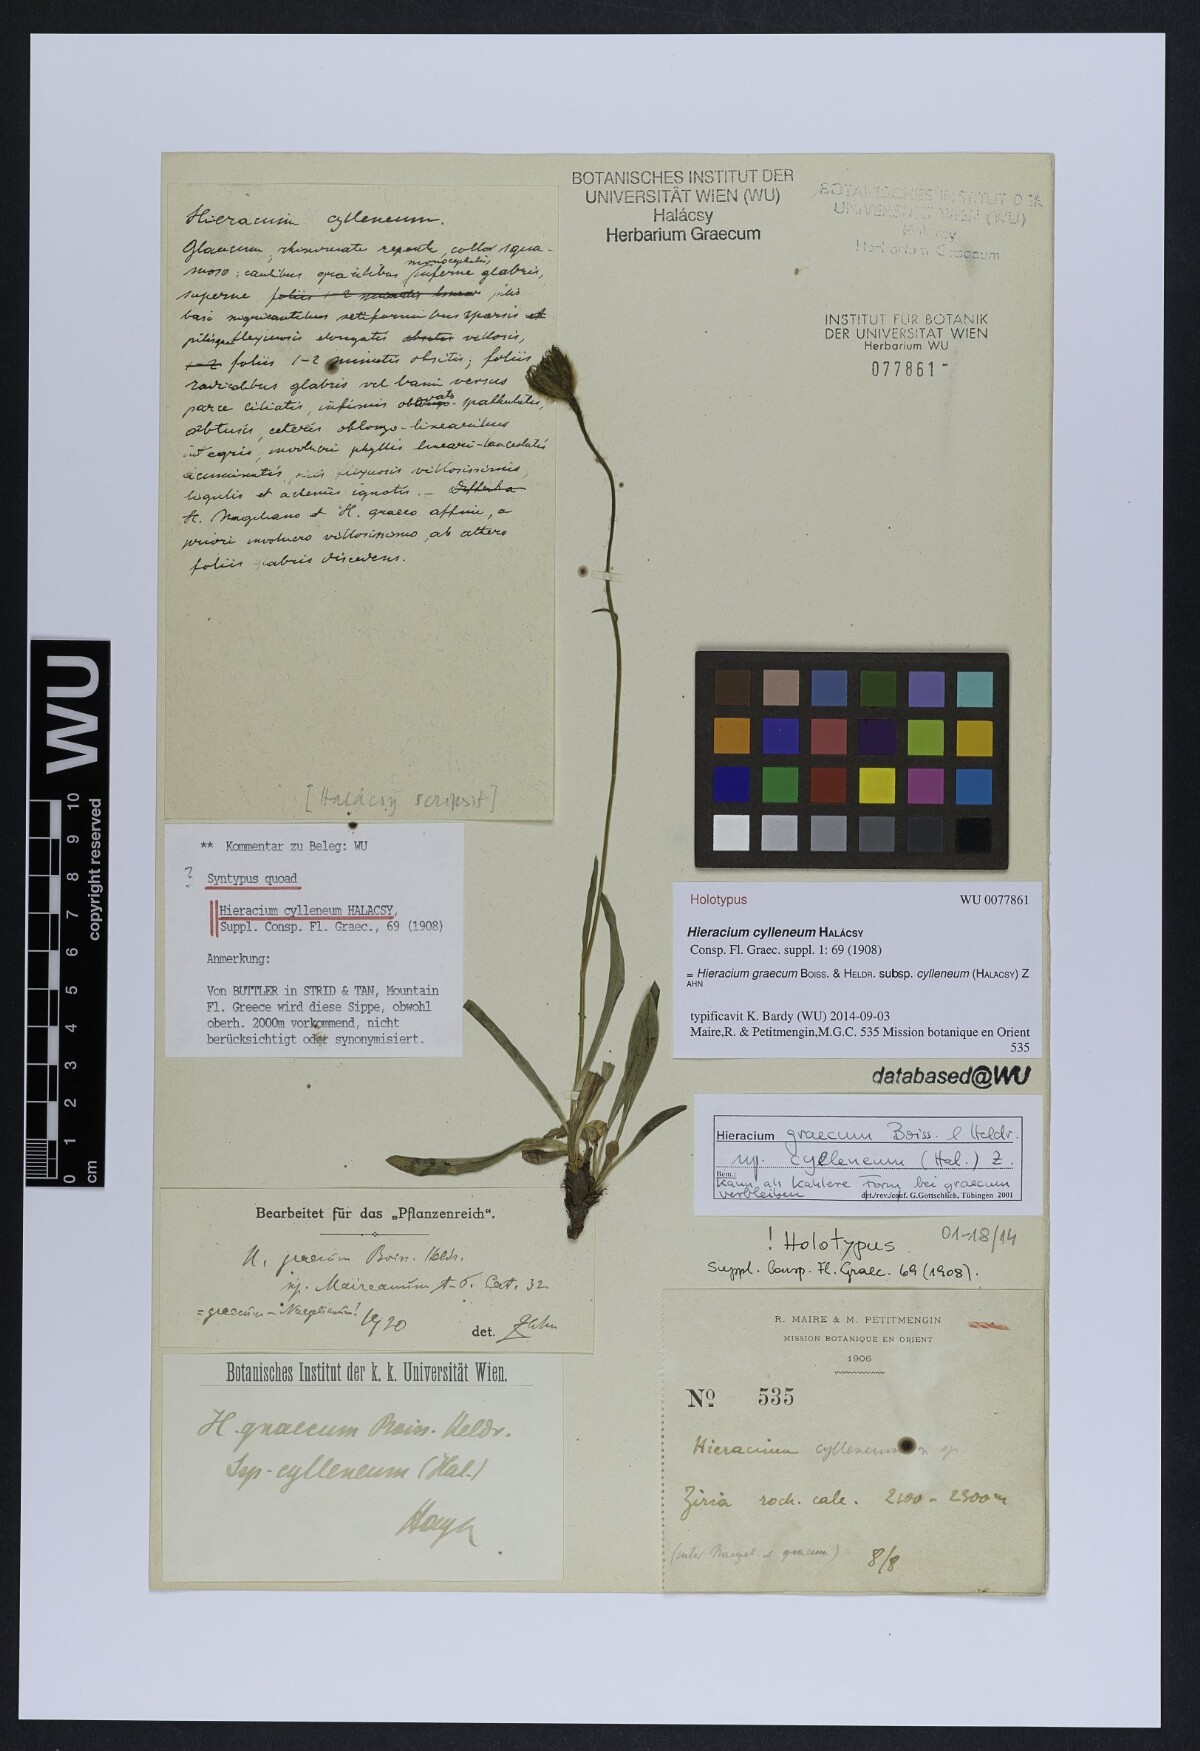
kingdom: Plantae
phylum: Tracheophyta
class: Magnoliopsida
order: Asterales
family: Asteraceae
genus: Hieracium
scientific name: Hieracium graecum
